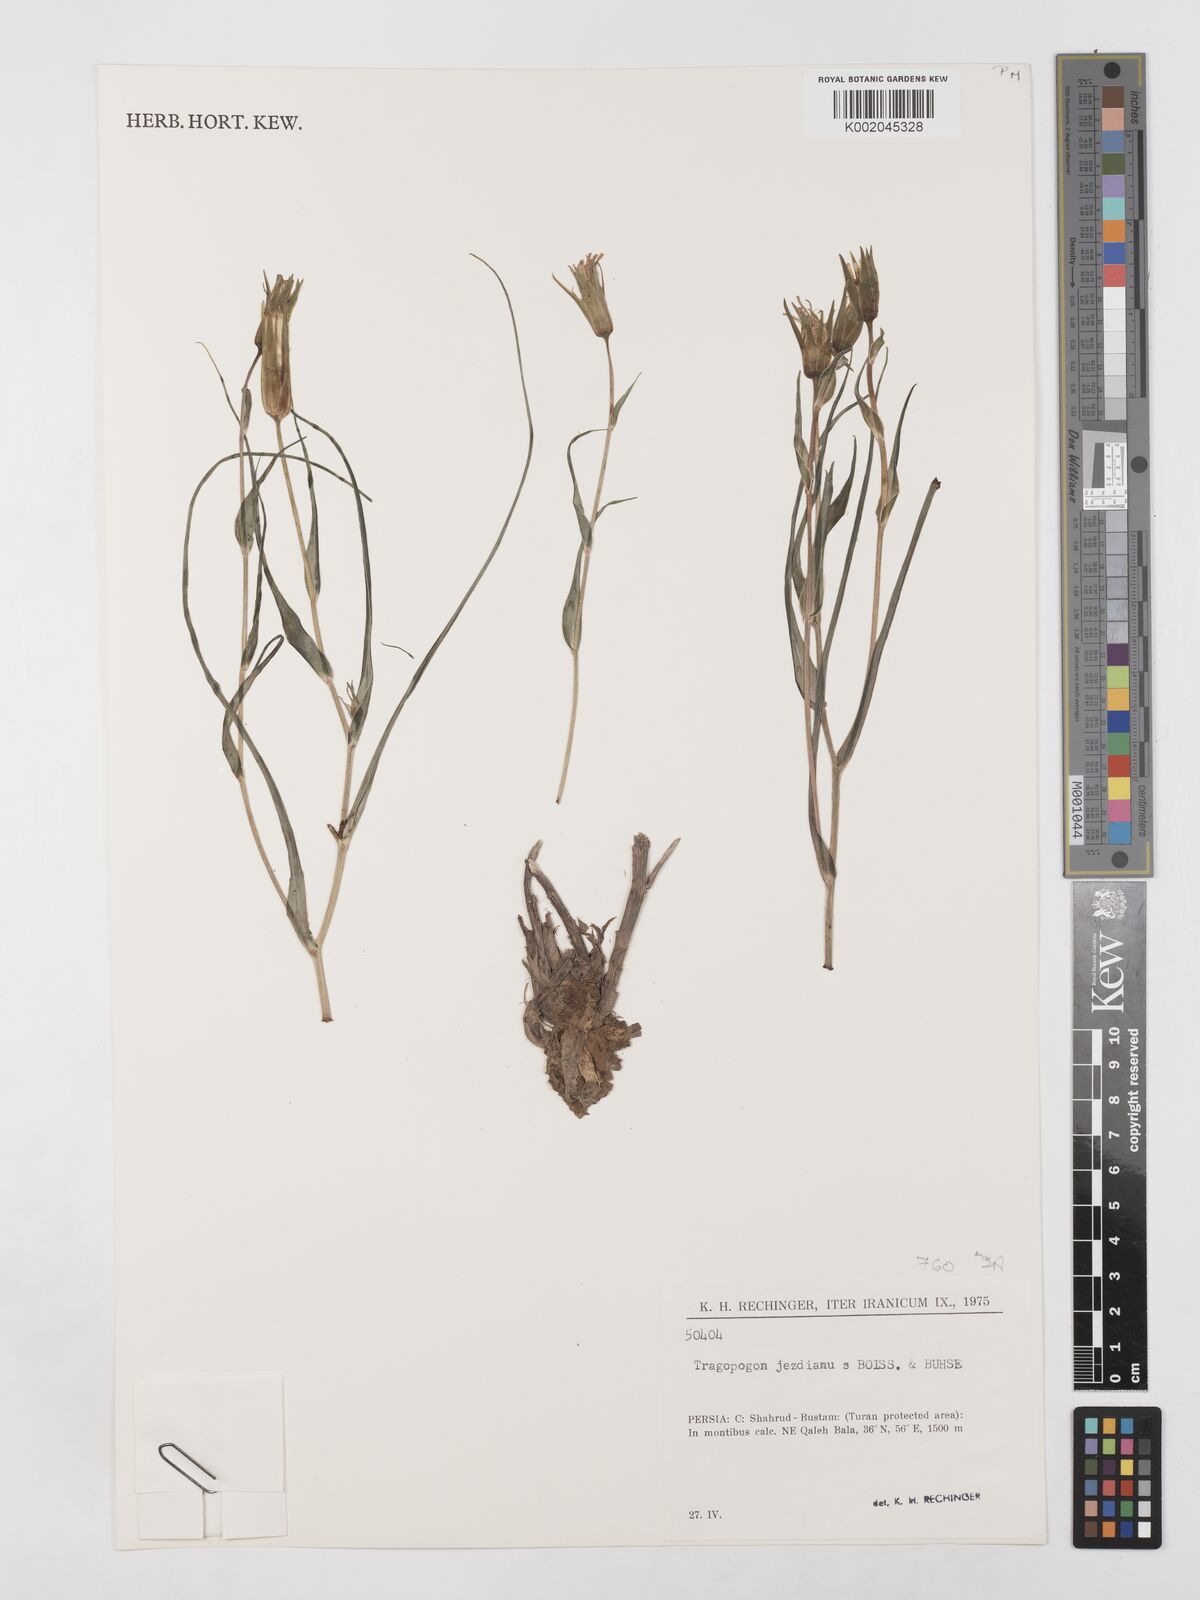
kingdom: Plantae
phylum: Tracheophyta
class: Magnoliopsida
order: Asterales
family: Asteraceae
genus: Tragopogon
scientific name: Tragopogon jesdianus
